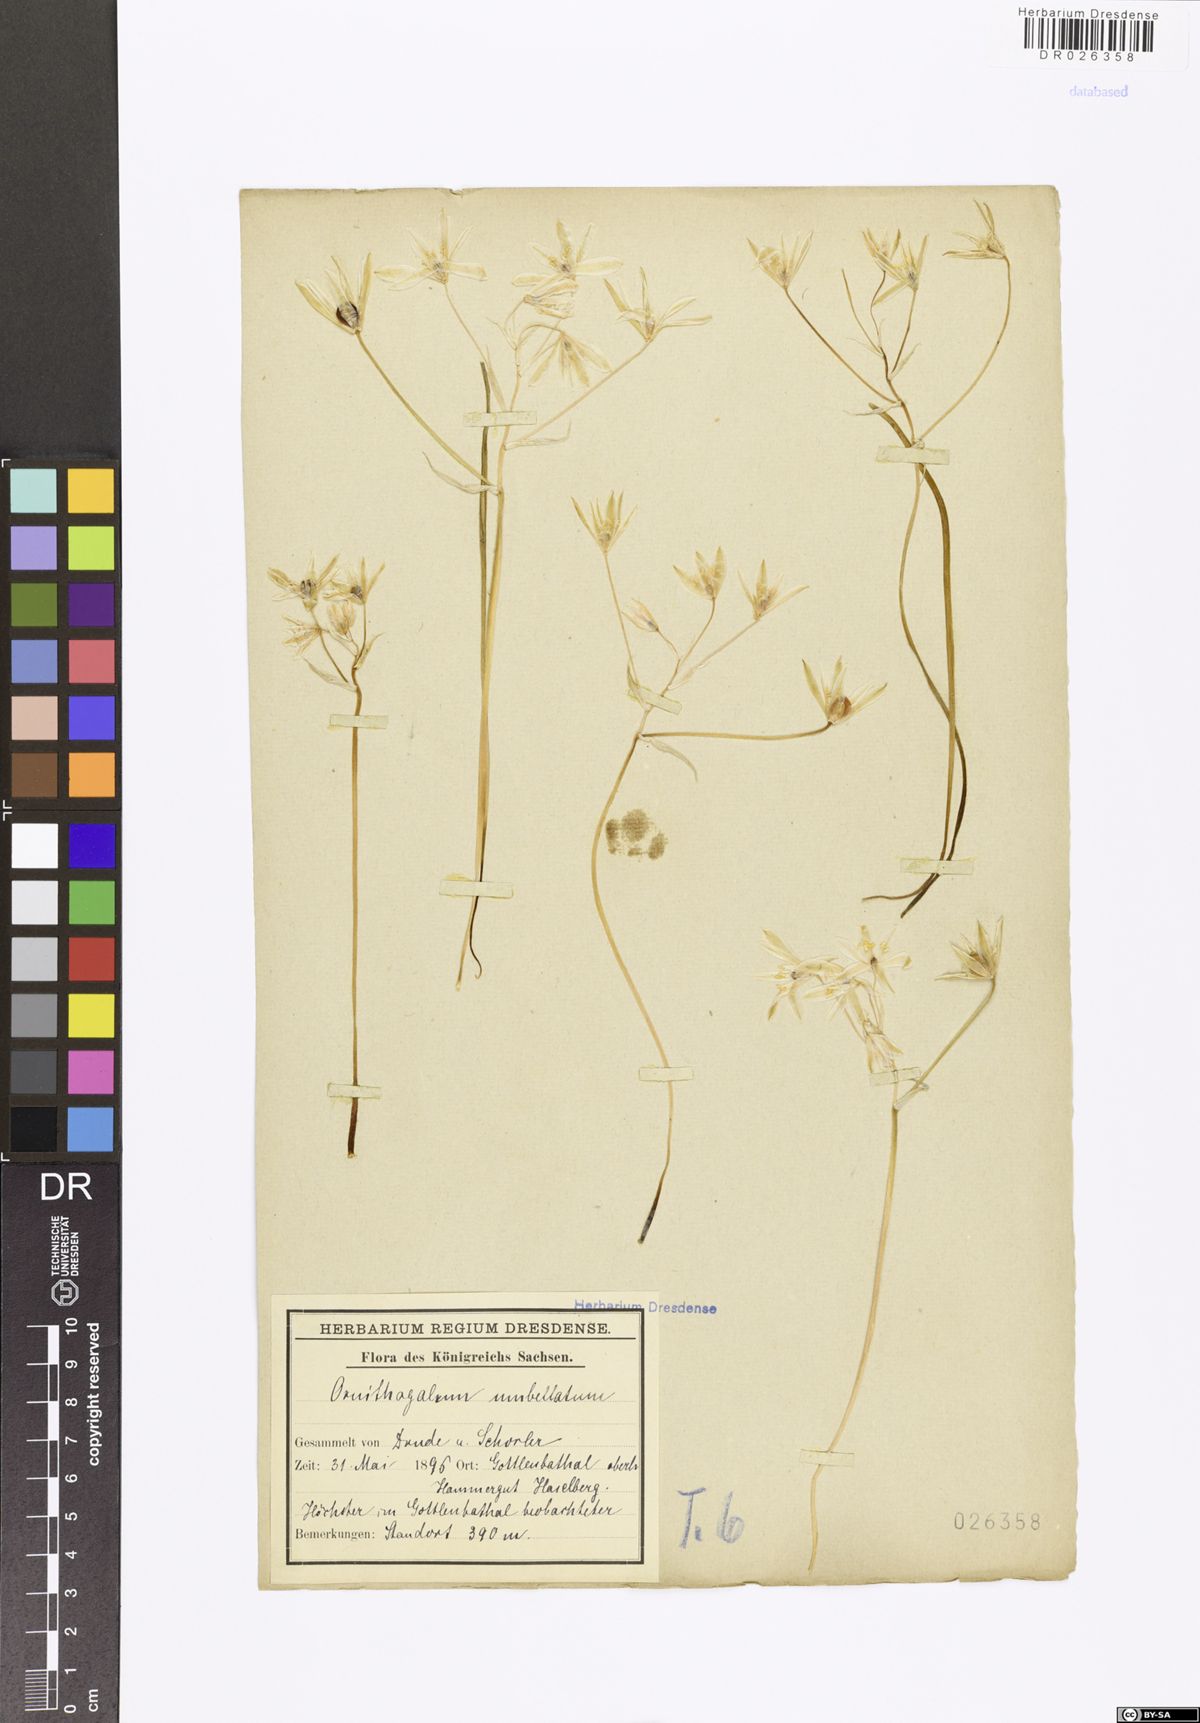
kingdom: Plantae
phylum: Tracheophyta
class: Liliopsida
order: Asparagales
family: Asparagaceae
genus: Ornithogalum
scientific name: Ornithogalum umbellatum
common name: Garden star-of-bethlehem
